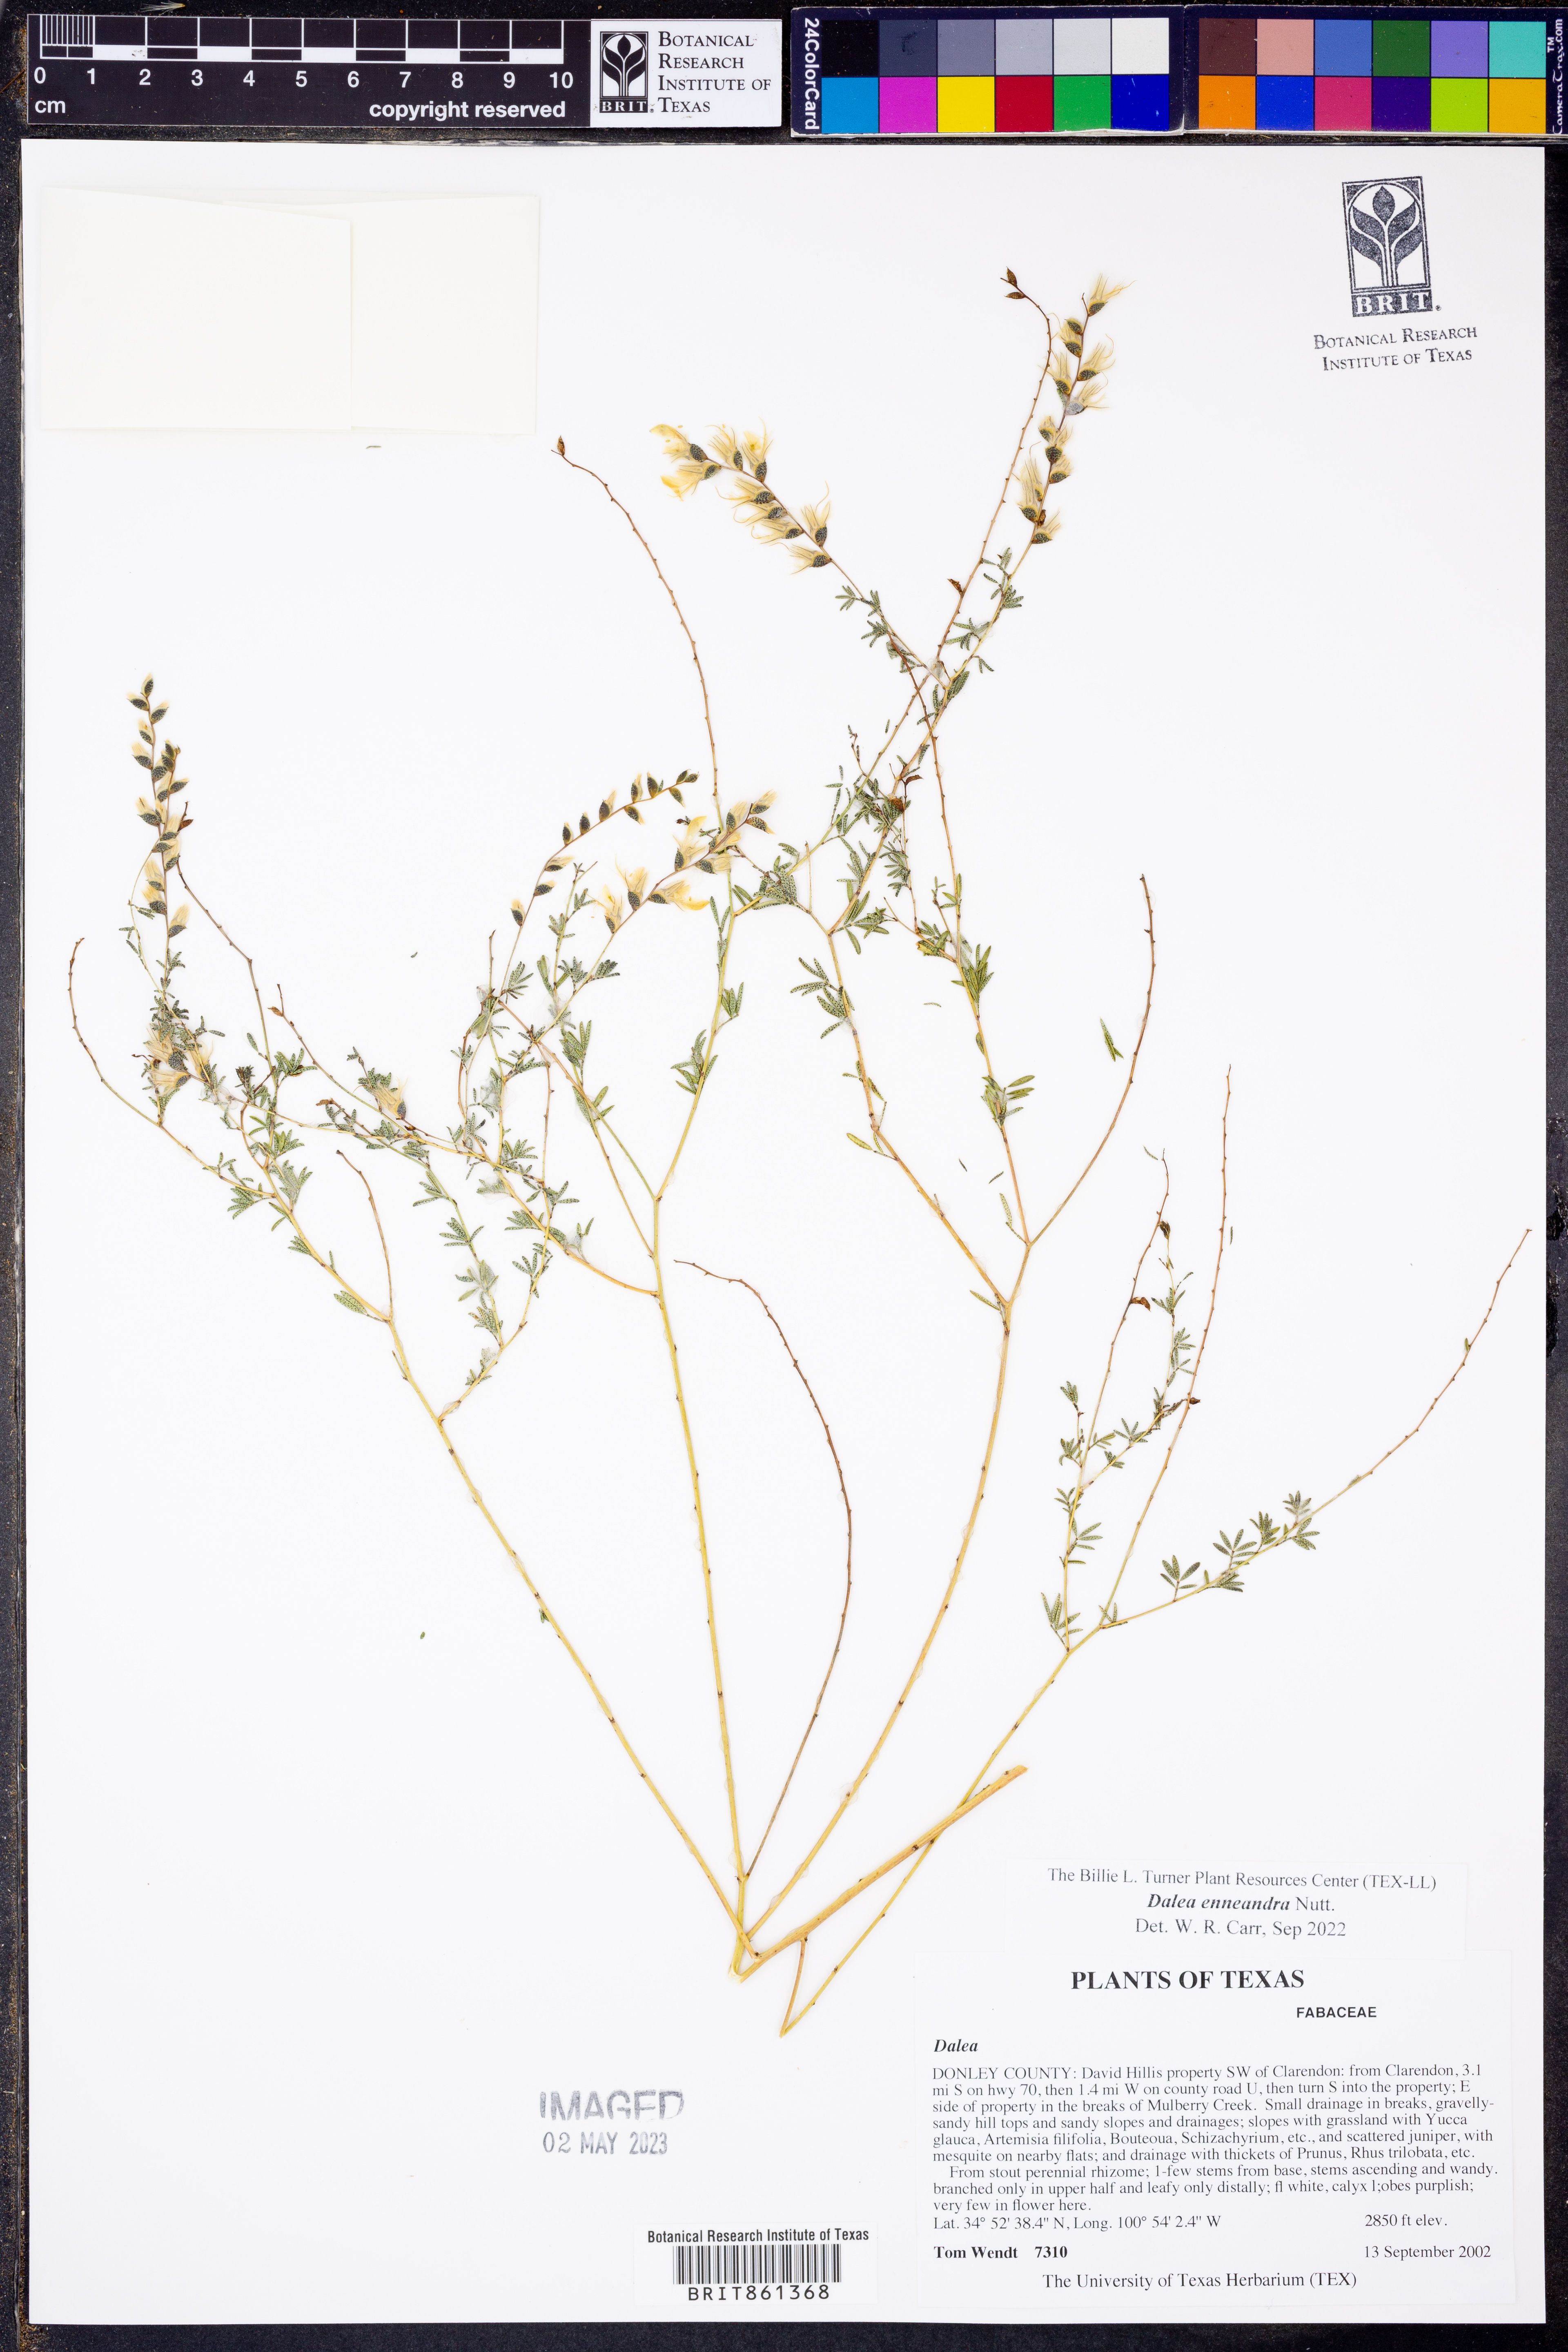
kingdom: Plantae
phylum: Tracheophyta
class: Magnoliopsida
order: Fabales
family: Fabaceae
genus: Dalea
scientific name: Dalea enneandra
